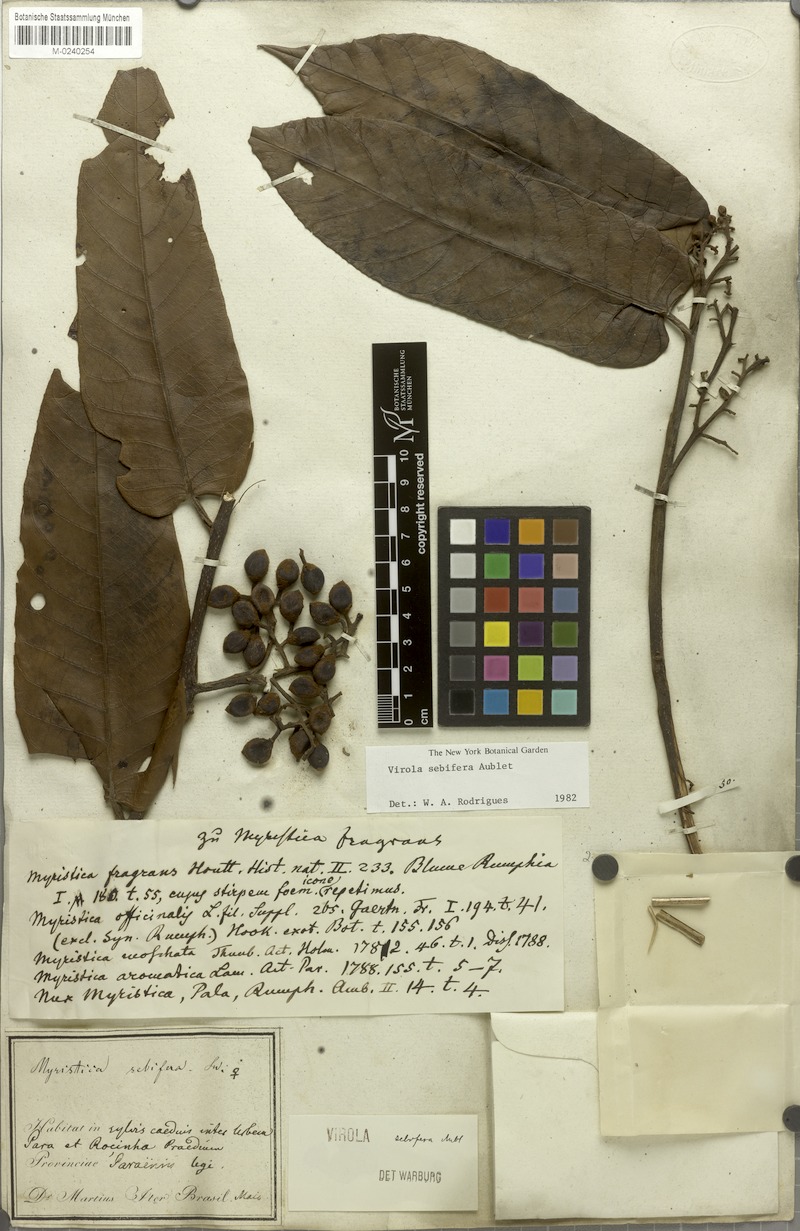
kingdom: Plantae
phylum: Tracheophyta
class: Magnoliopsida
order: Magnoliales
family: Myristicaceae
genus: Virola
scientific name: Virola sebifera
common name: Red ucuuba
